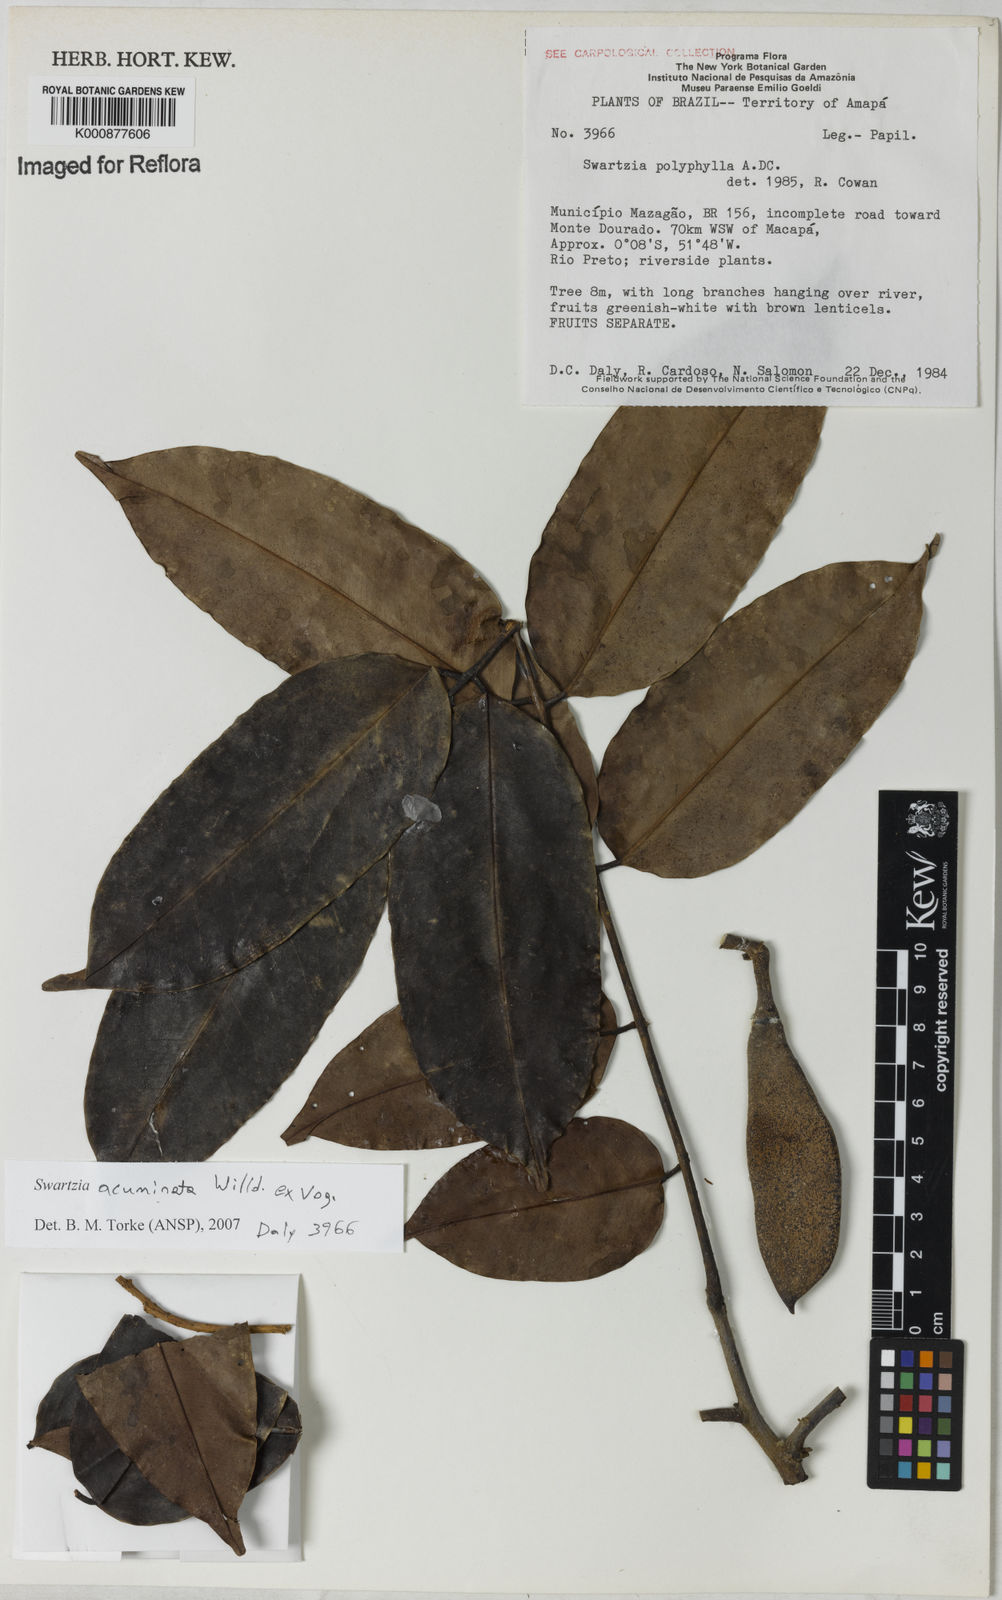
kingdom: Plantae
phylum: Tracheophyta
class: Magnoliopsida
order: Fabales
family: Fabaceae
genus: Swartzia
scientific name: Swartzia acuminata
